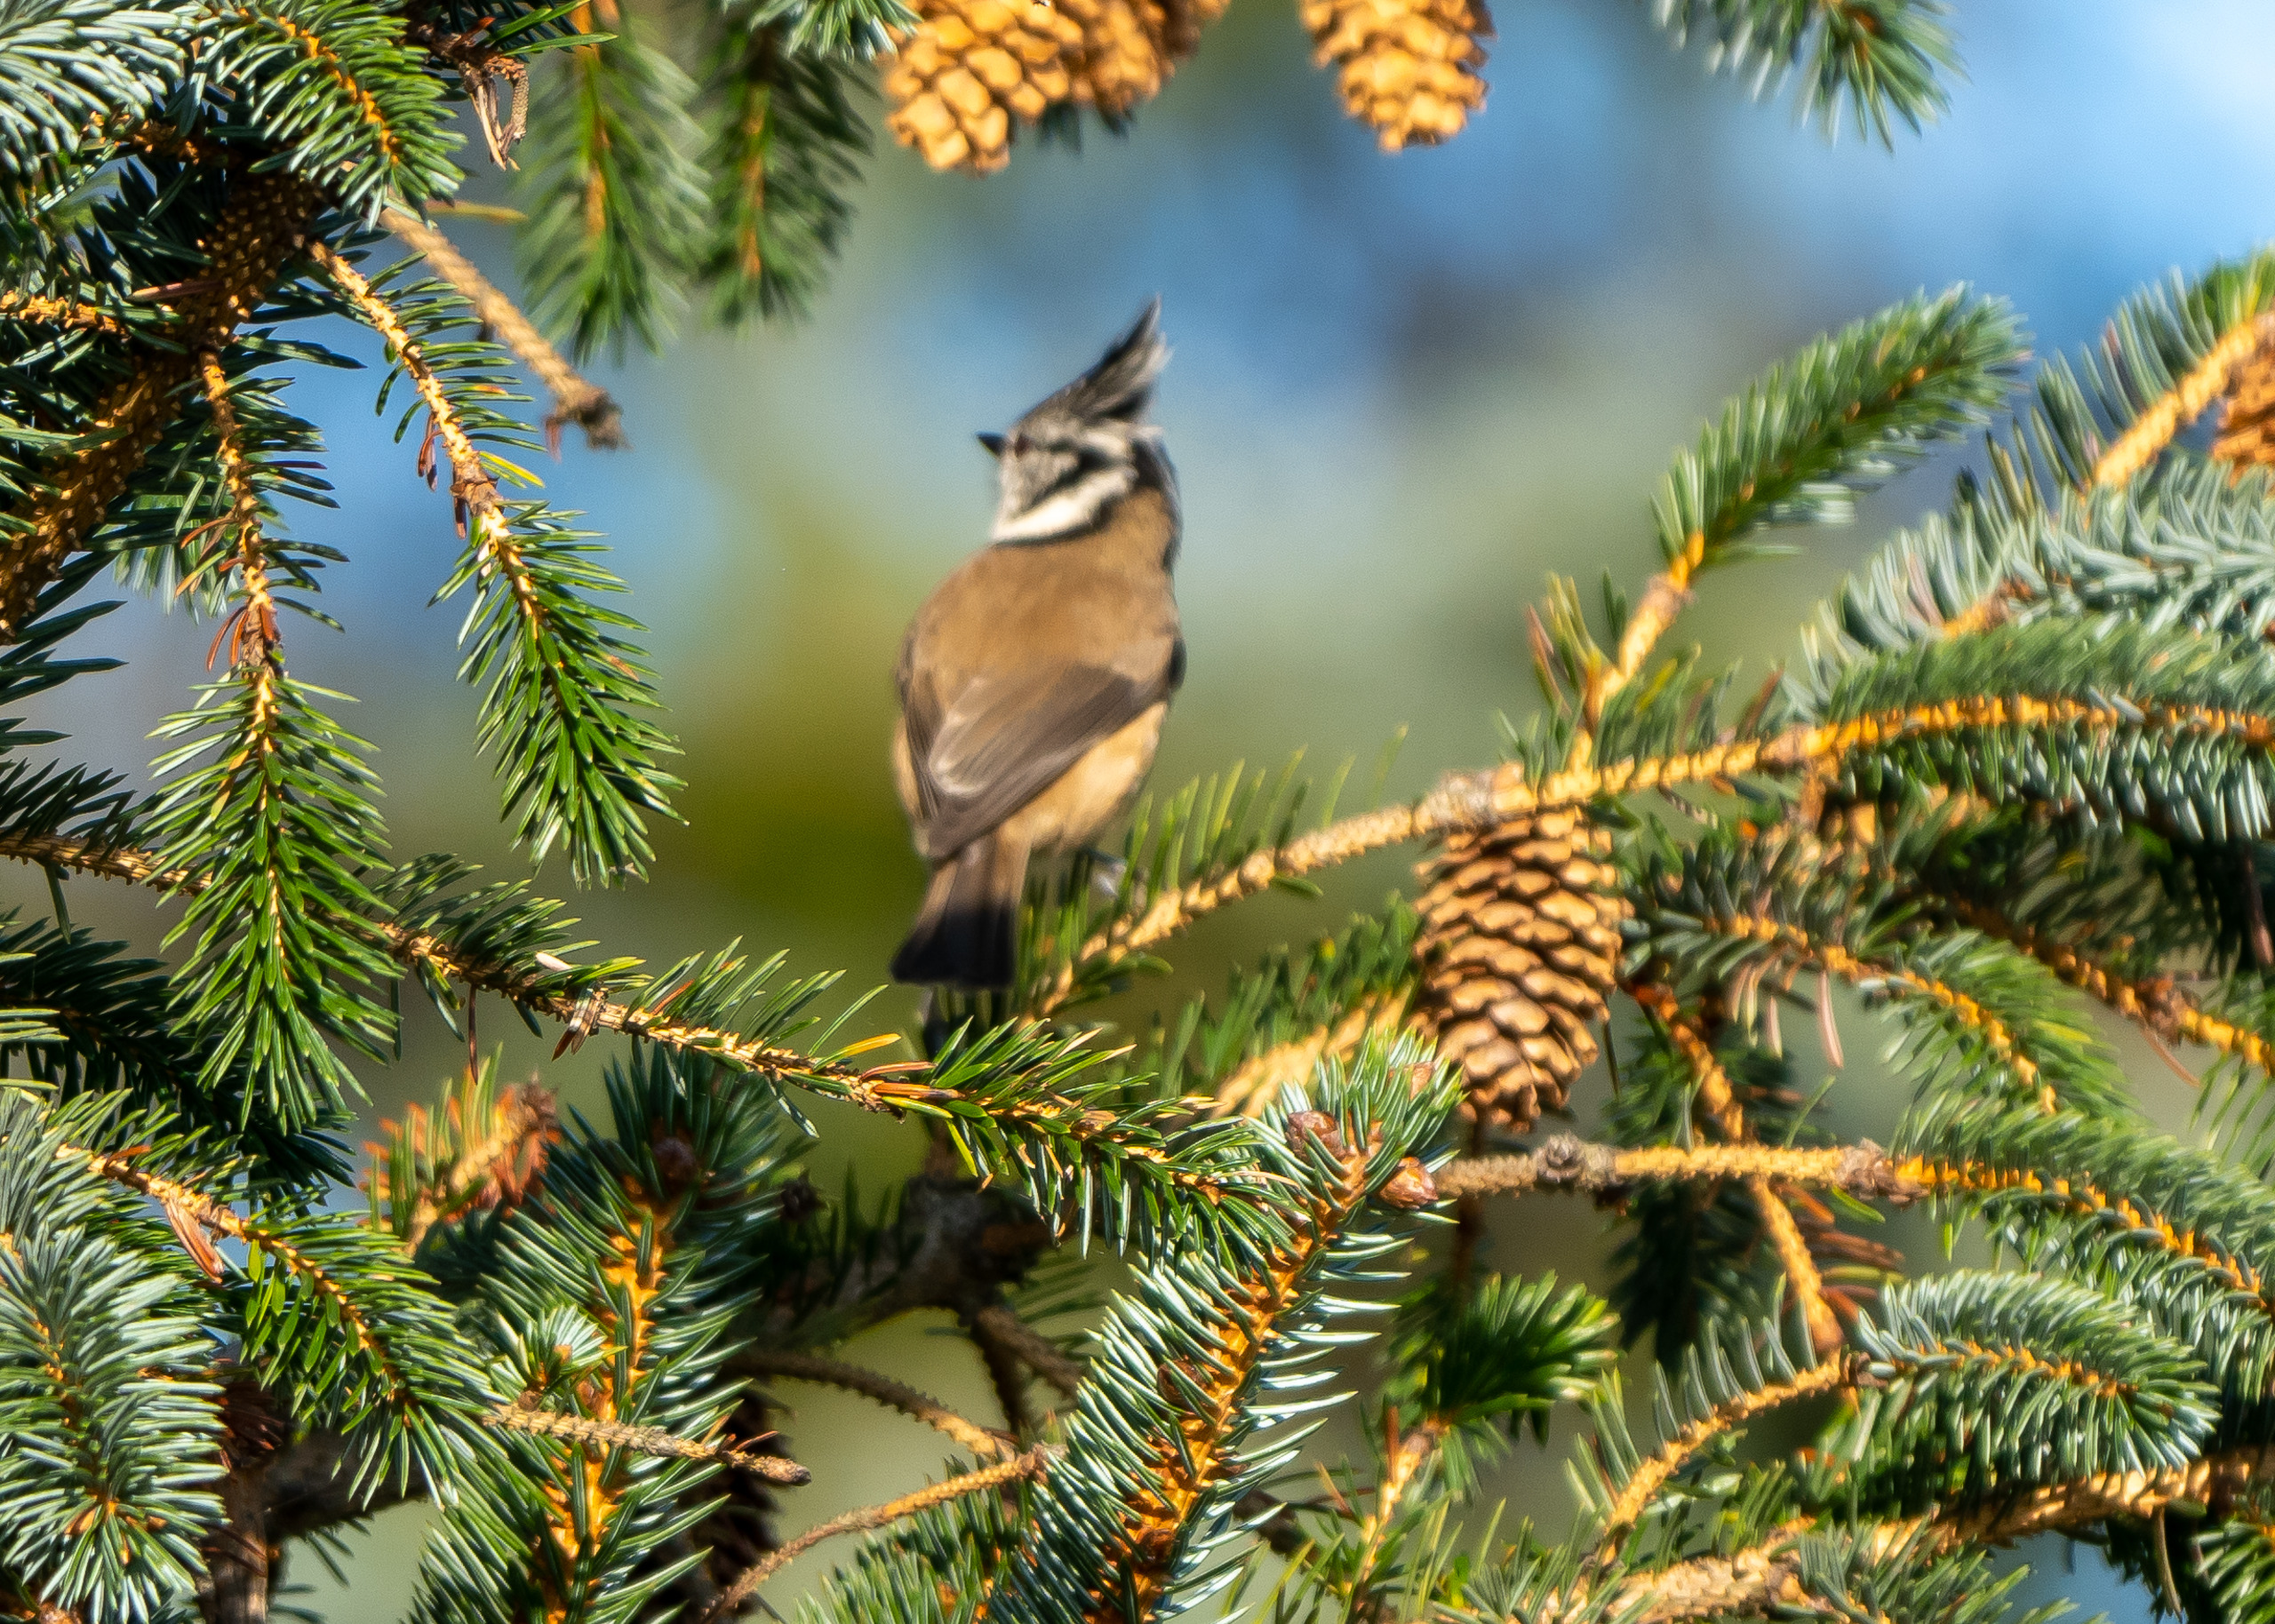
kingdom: Animalia
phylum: Chordata
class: Aves
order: Passeriformes
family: Paridae
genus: Lophophanes
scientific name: Lophophanes cristatus
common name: Topmejse
